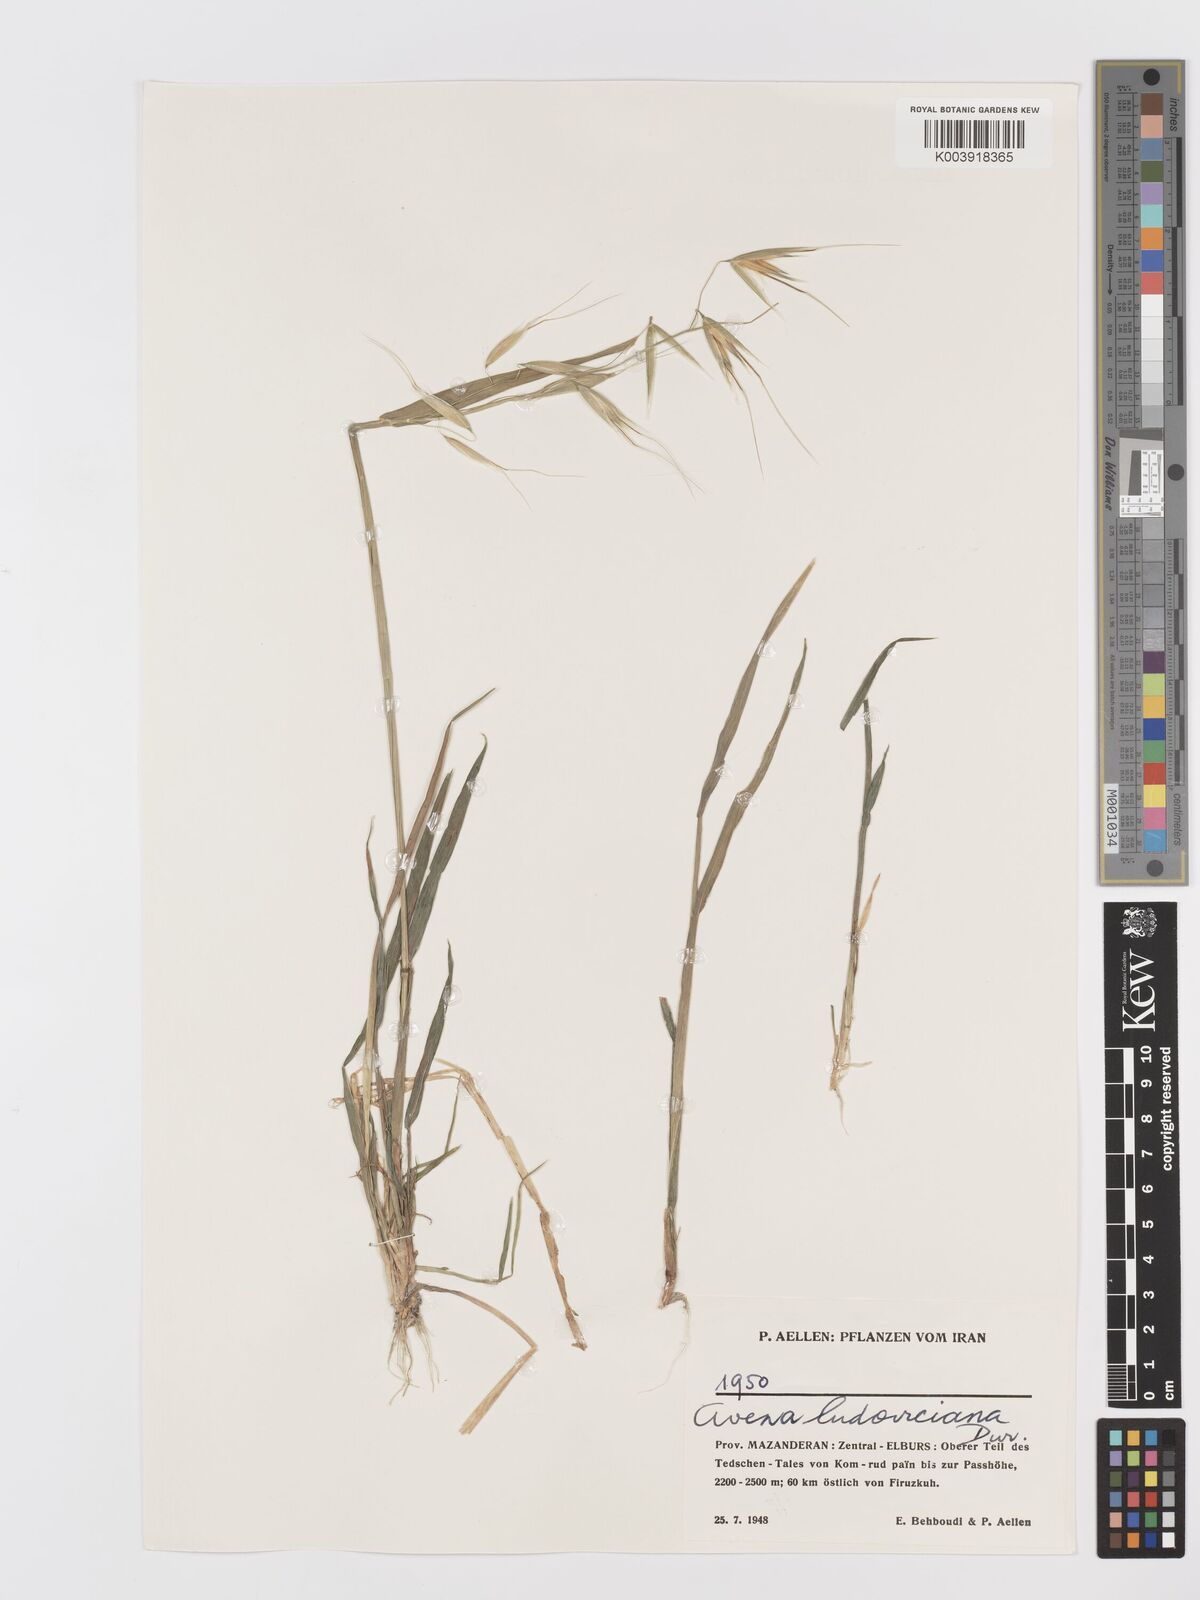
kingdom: Plantae
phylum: Tracheophyta
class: Liliopsida
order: Poales
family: Poaceae
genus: Avena
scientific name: Avena sterilis
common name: Animated oat
